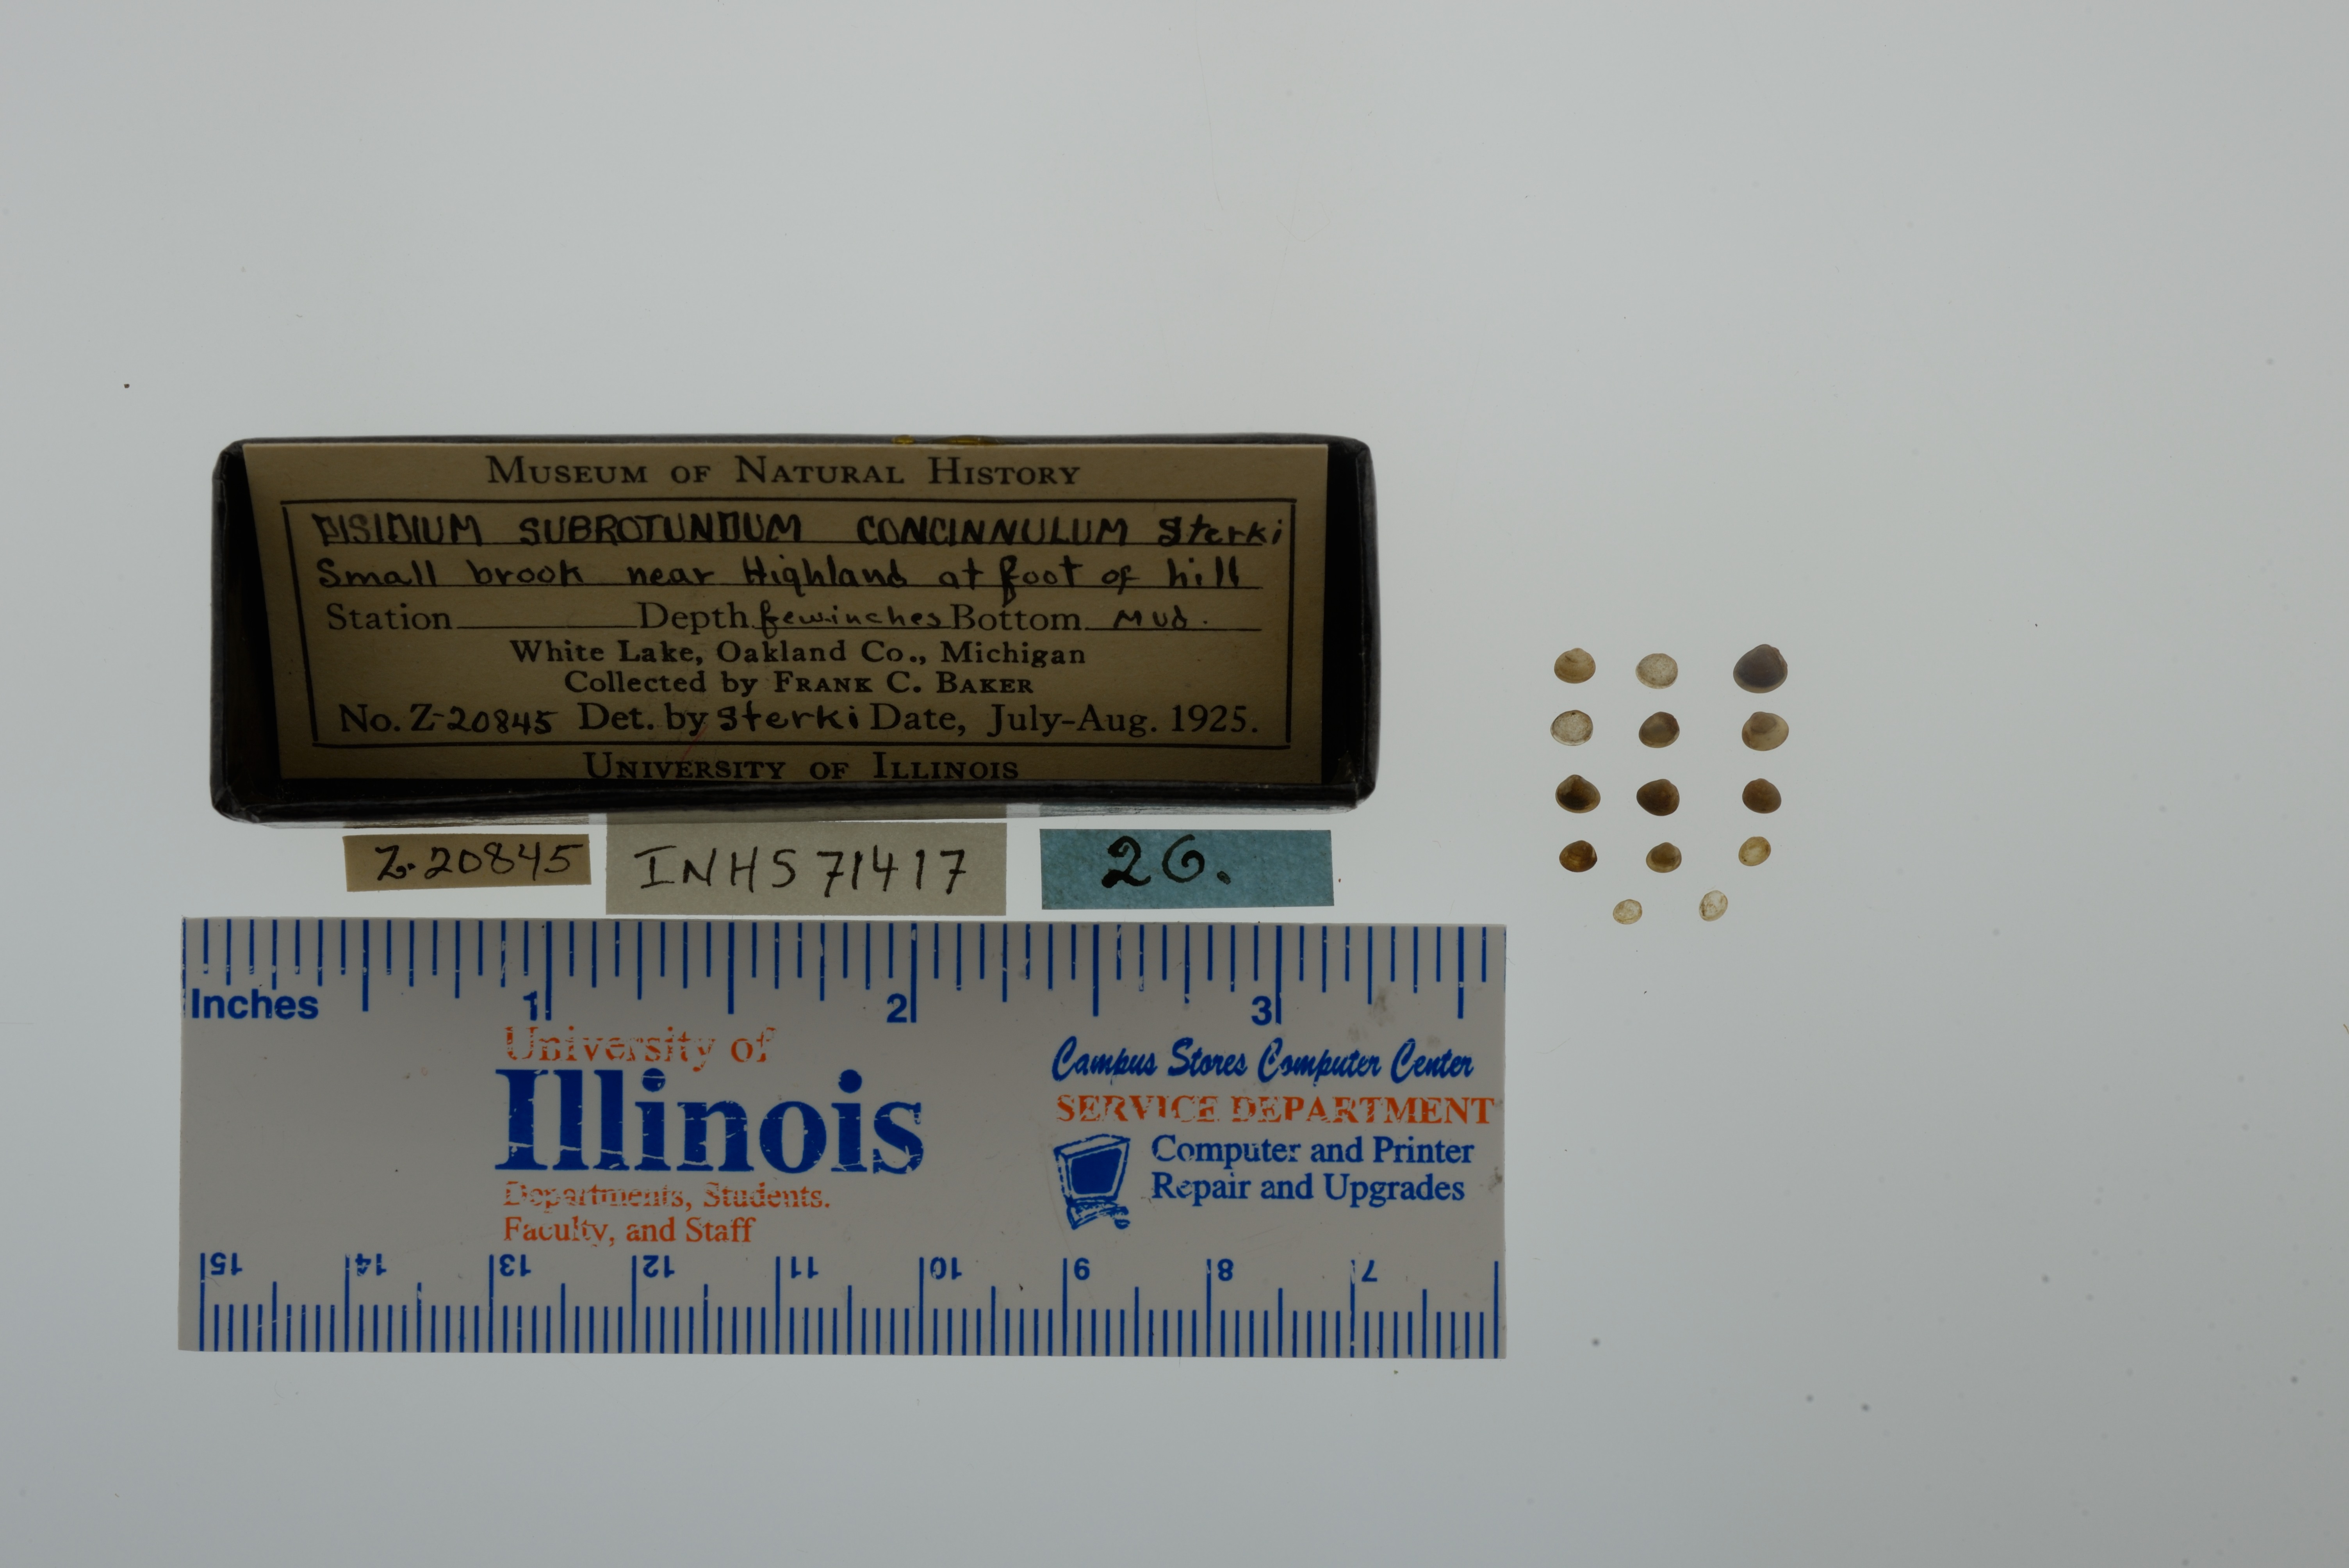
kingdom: Animalia
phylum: Mollusca
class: Bivalvia
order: Sphaeriida
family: Sphaeriidae
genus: Euglesa
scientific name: Euglesa casertana
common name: Caserta pea mussel
